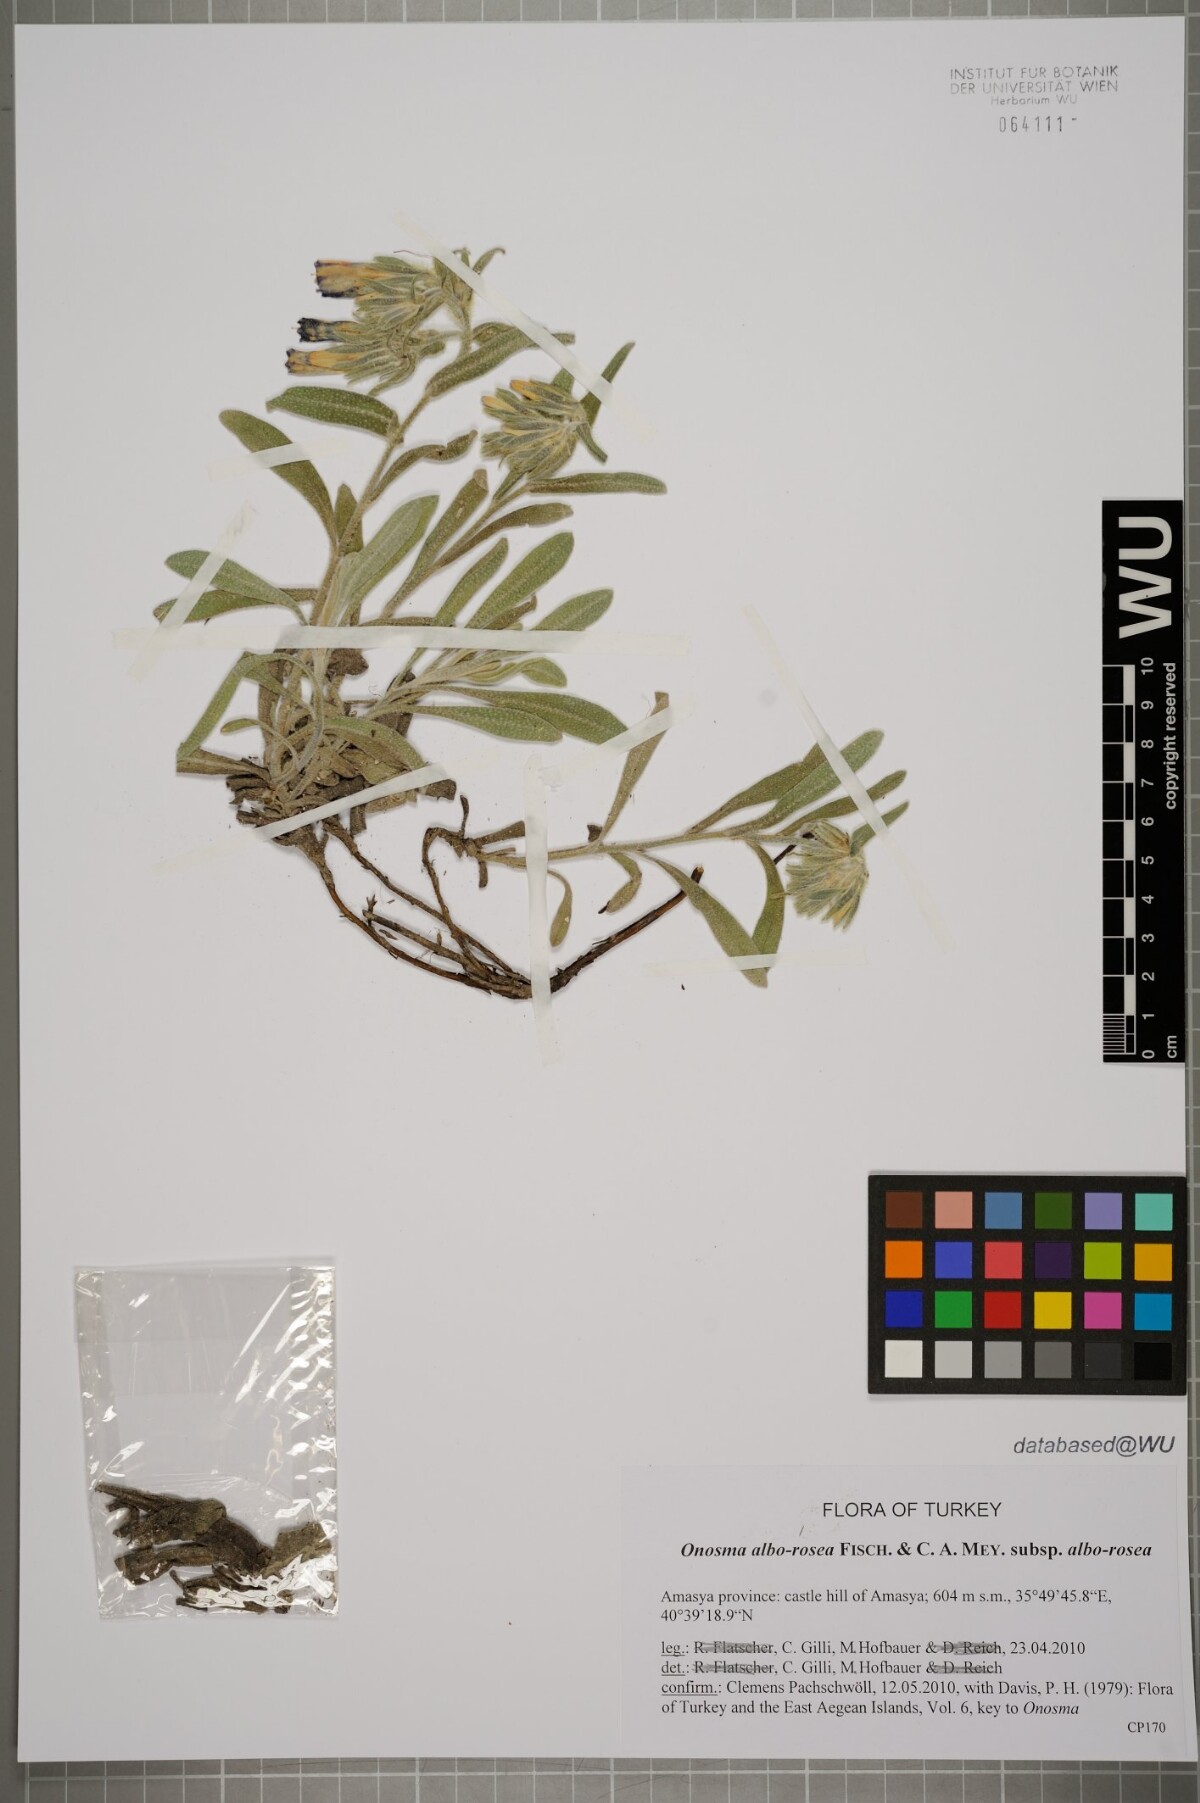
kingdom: Plantae
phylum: Tracheophyta
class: Magnoliopsida
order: Boraginales
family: Boraginaceae
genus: Onosma
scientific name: Onosma alborosea
